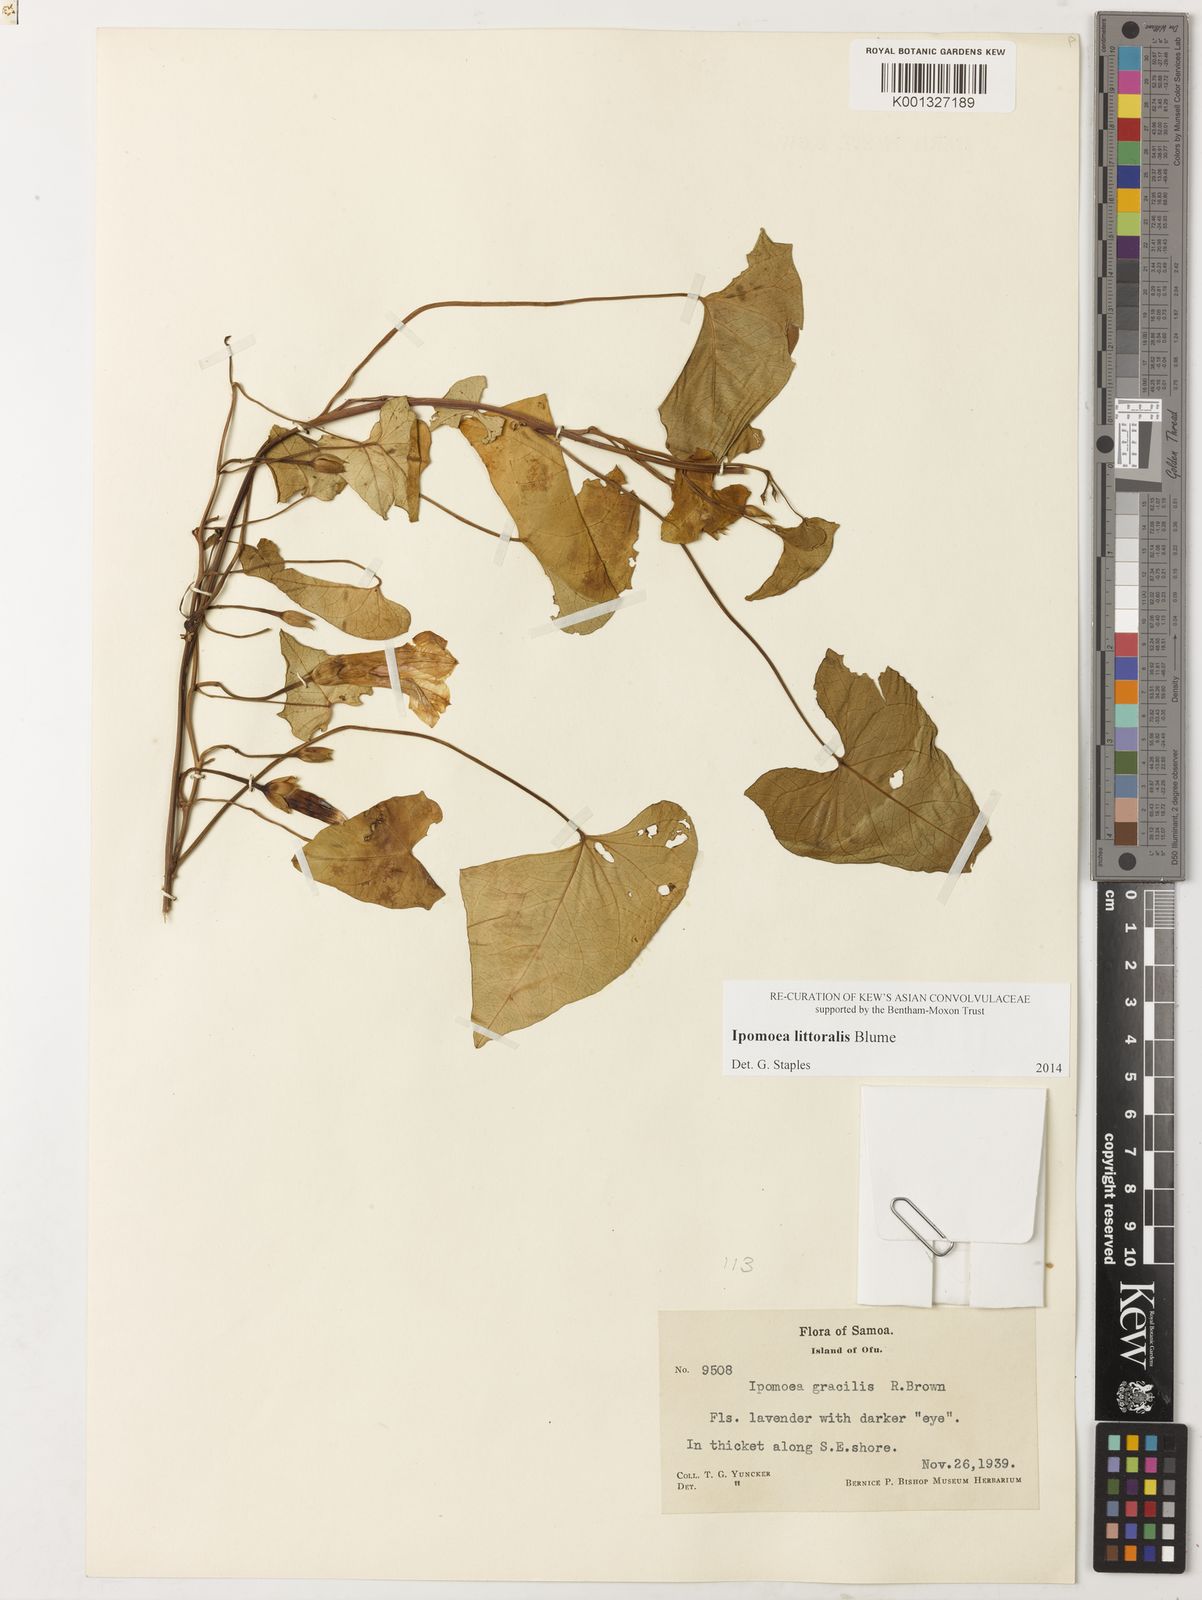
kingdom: Plantae
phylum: Tracheophyta
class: Magnoliopsida
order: Solanales
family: Convolvulaceae
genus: Ipomoea
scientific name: Ipomoea littoralis
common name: Coastal morning glory
